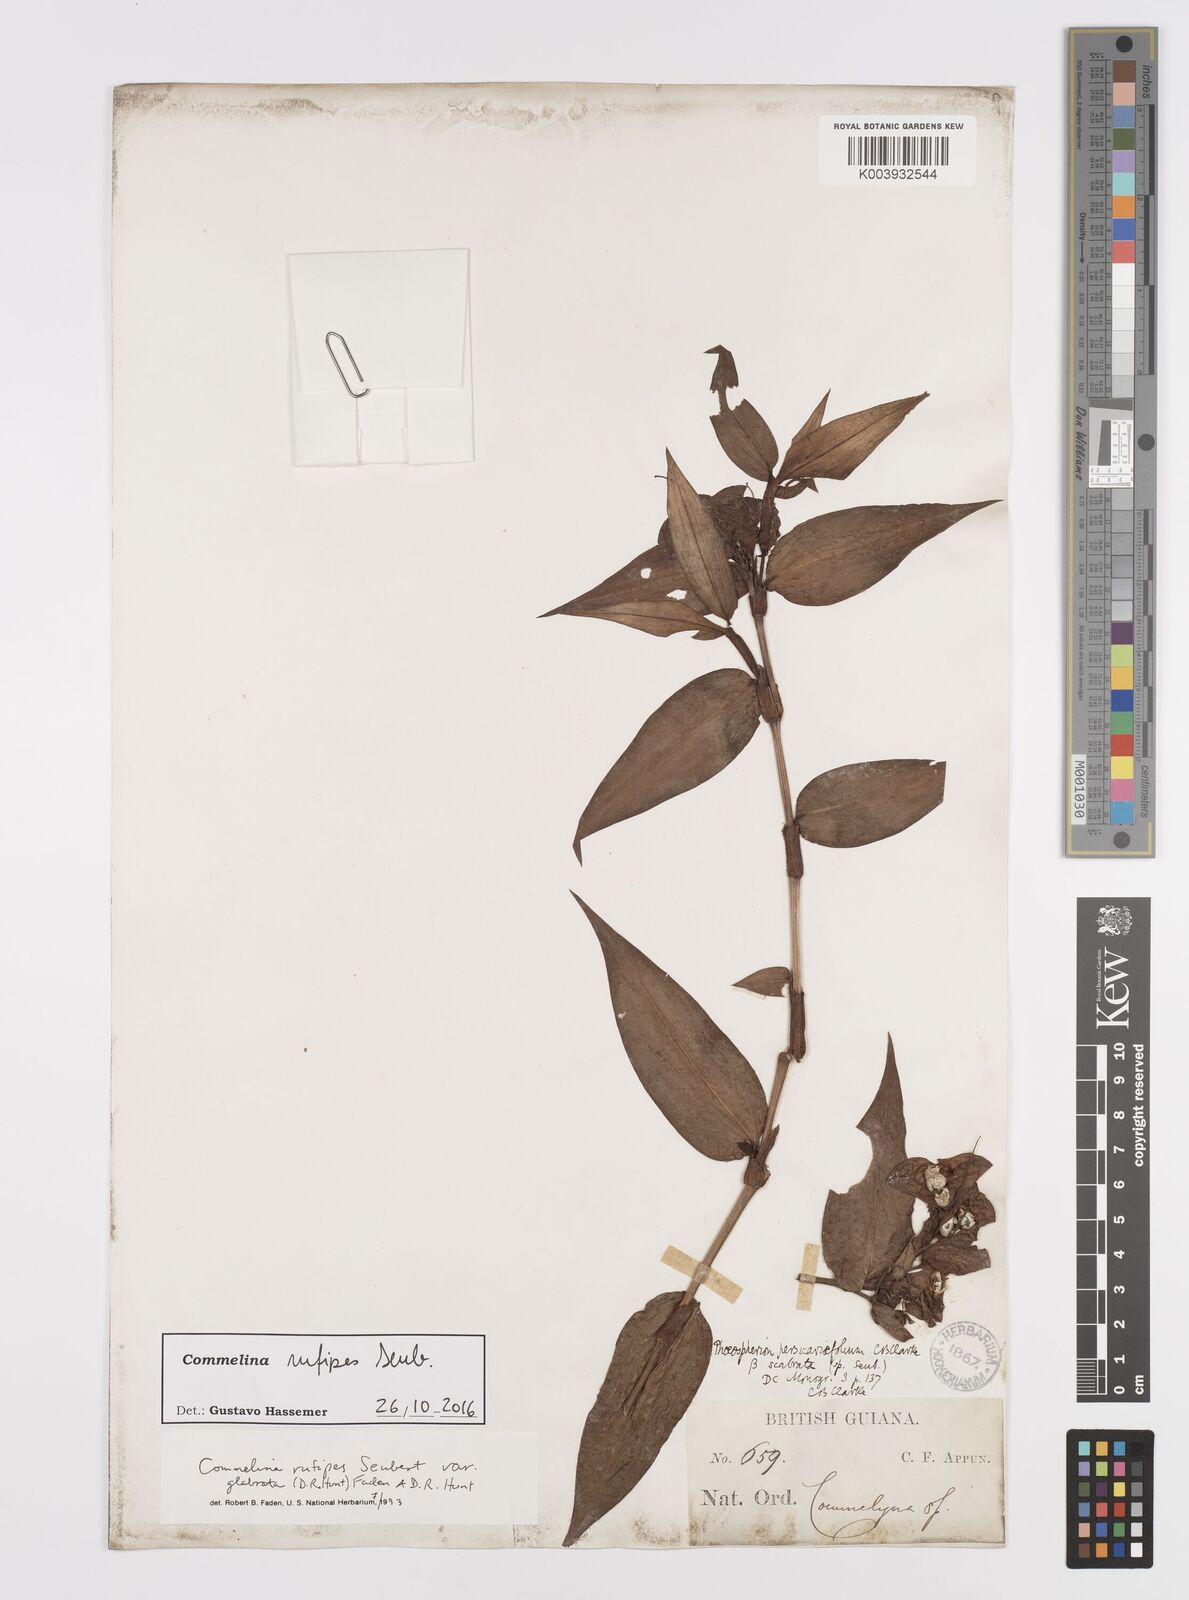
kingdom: Plantae
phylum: Tracheophyta
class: Liliopsida
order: Commelinales
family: Commelinaceae
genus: Commelina
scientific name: Commelina rufipes
